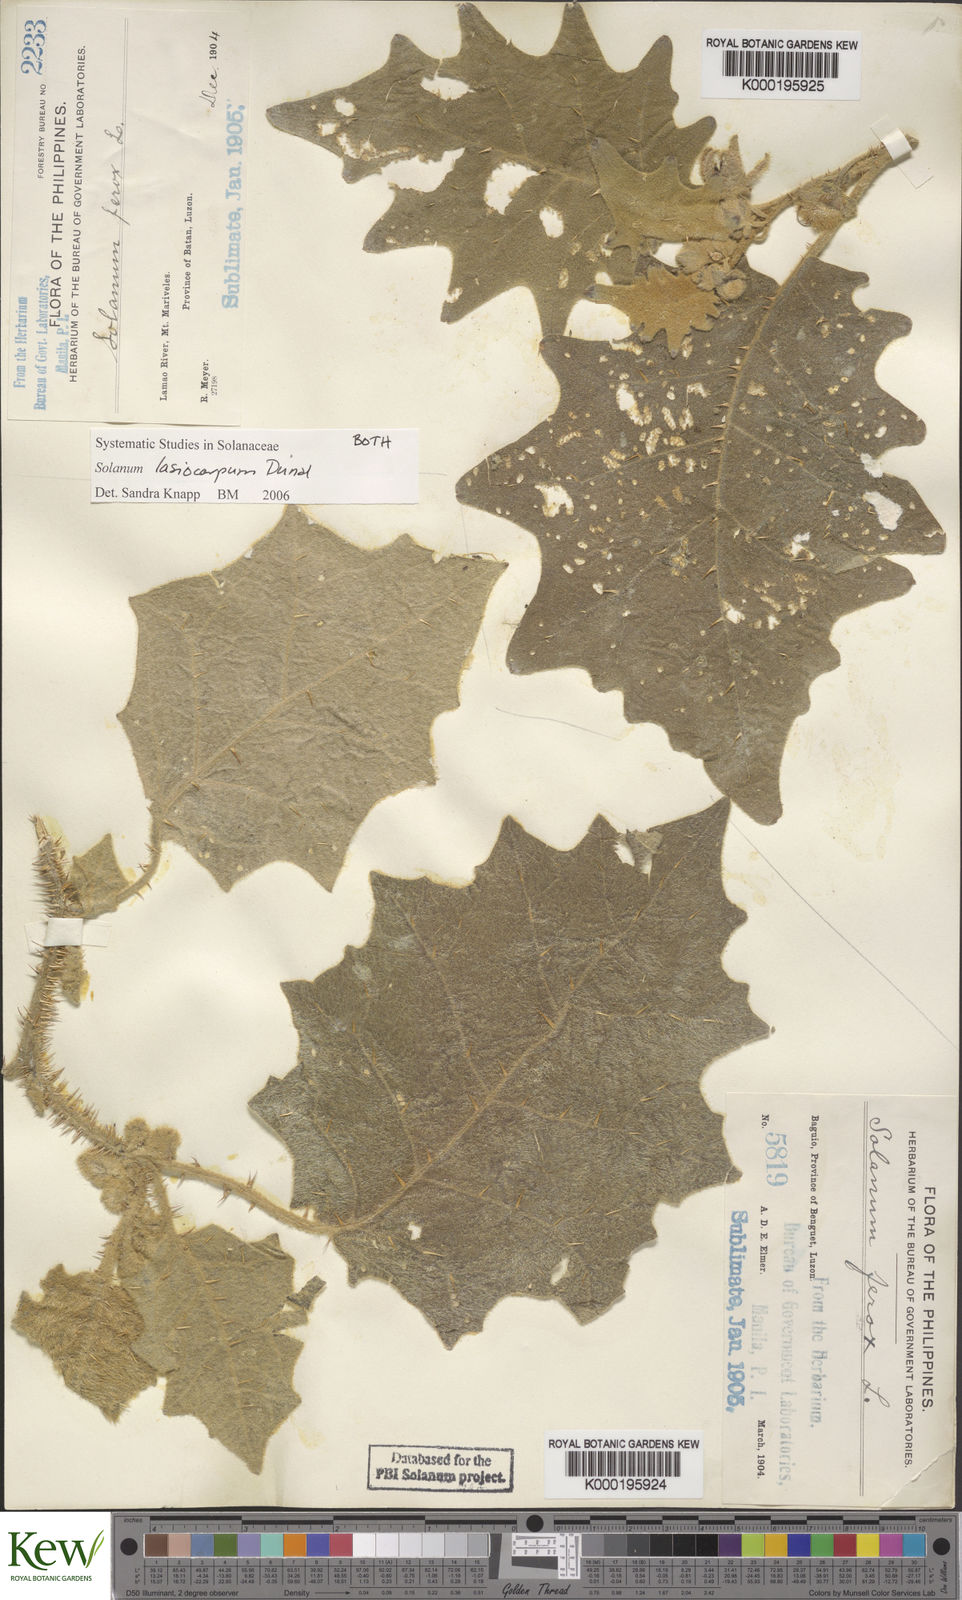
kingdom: Plantae
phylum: Tracheophyta
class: Magnoliopsida
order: Solanales
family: Solanaceae
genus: Solanum
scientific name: Solanum lasiocarpum
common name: Indian nightshade
